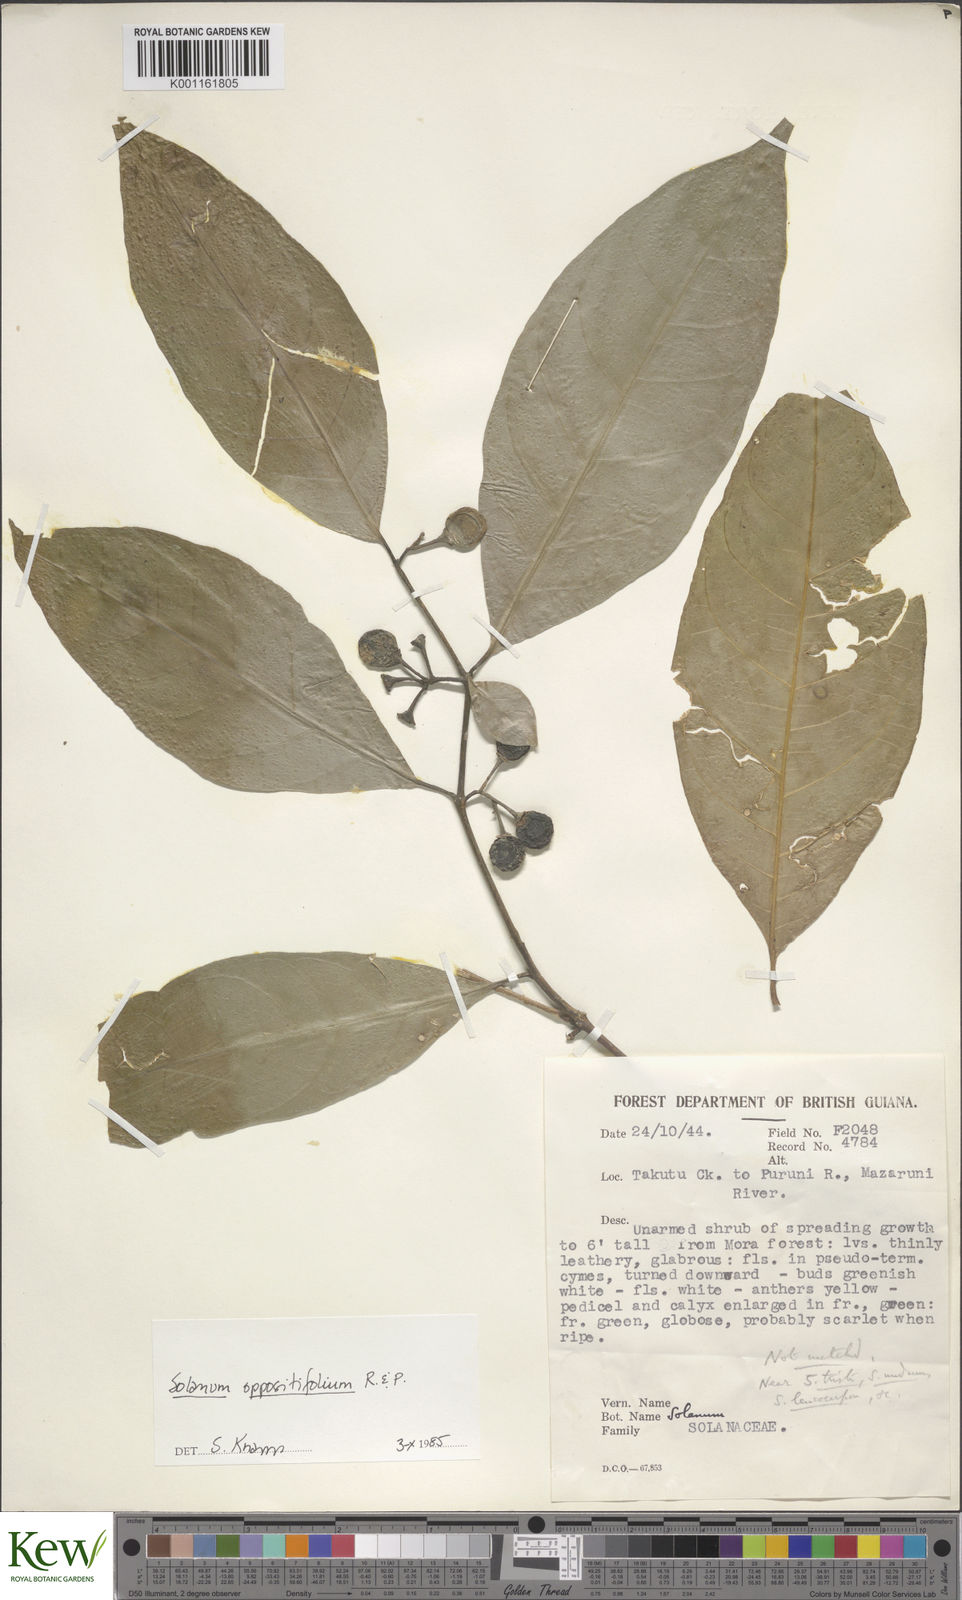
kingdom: Plantae
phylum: Tracheophyta
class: Magnoliopsida
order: Solanales
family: Solanaceae
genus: Solanum
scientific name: Solanum oppositifolium
